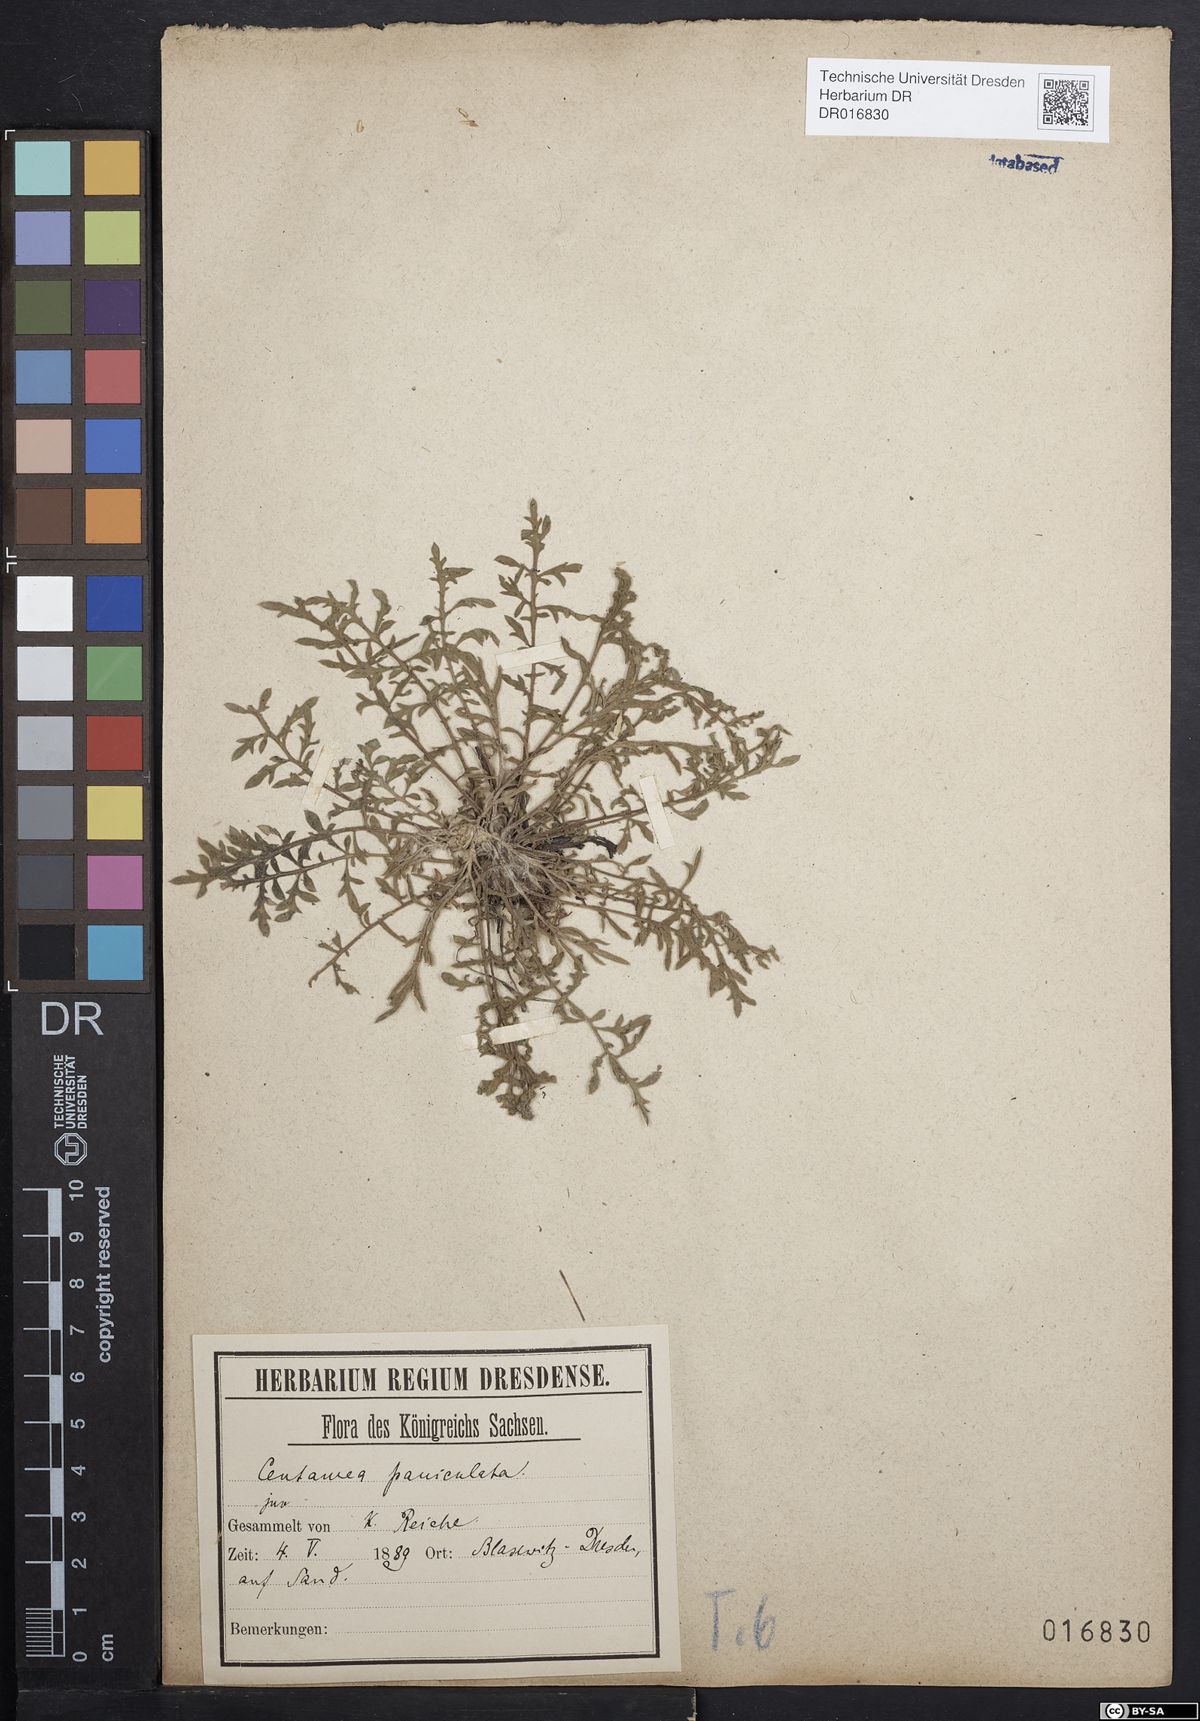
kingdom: Plantae
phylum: Tracheophyta
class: Magnoliopsida
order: Asterales
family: Asteraceae
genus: Centaurea
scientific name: Centaurea stoebe
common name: Spotted knapweed
